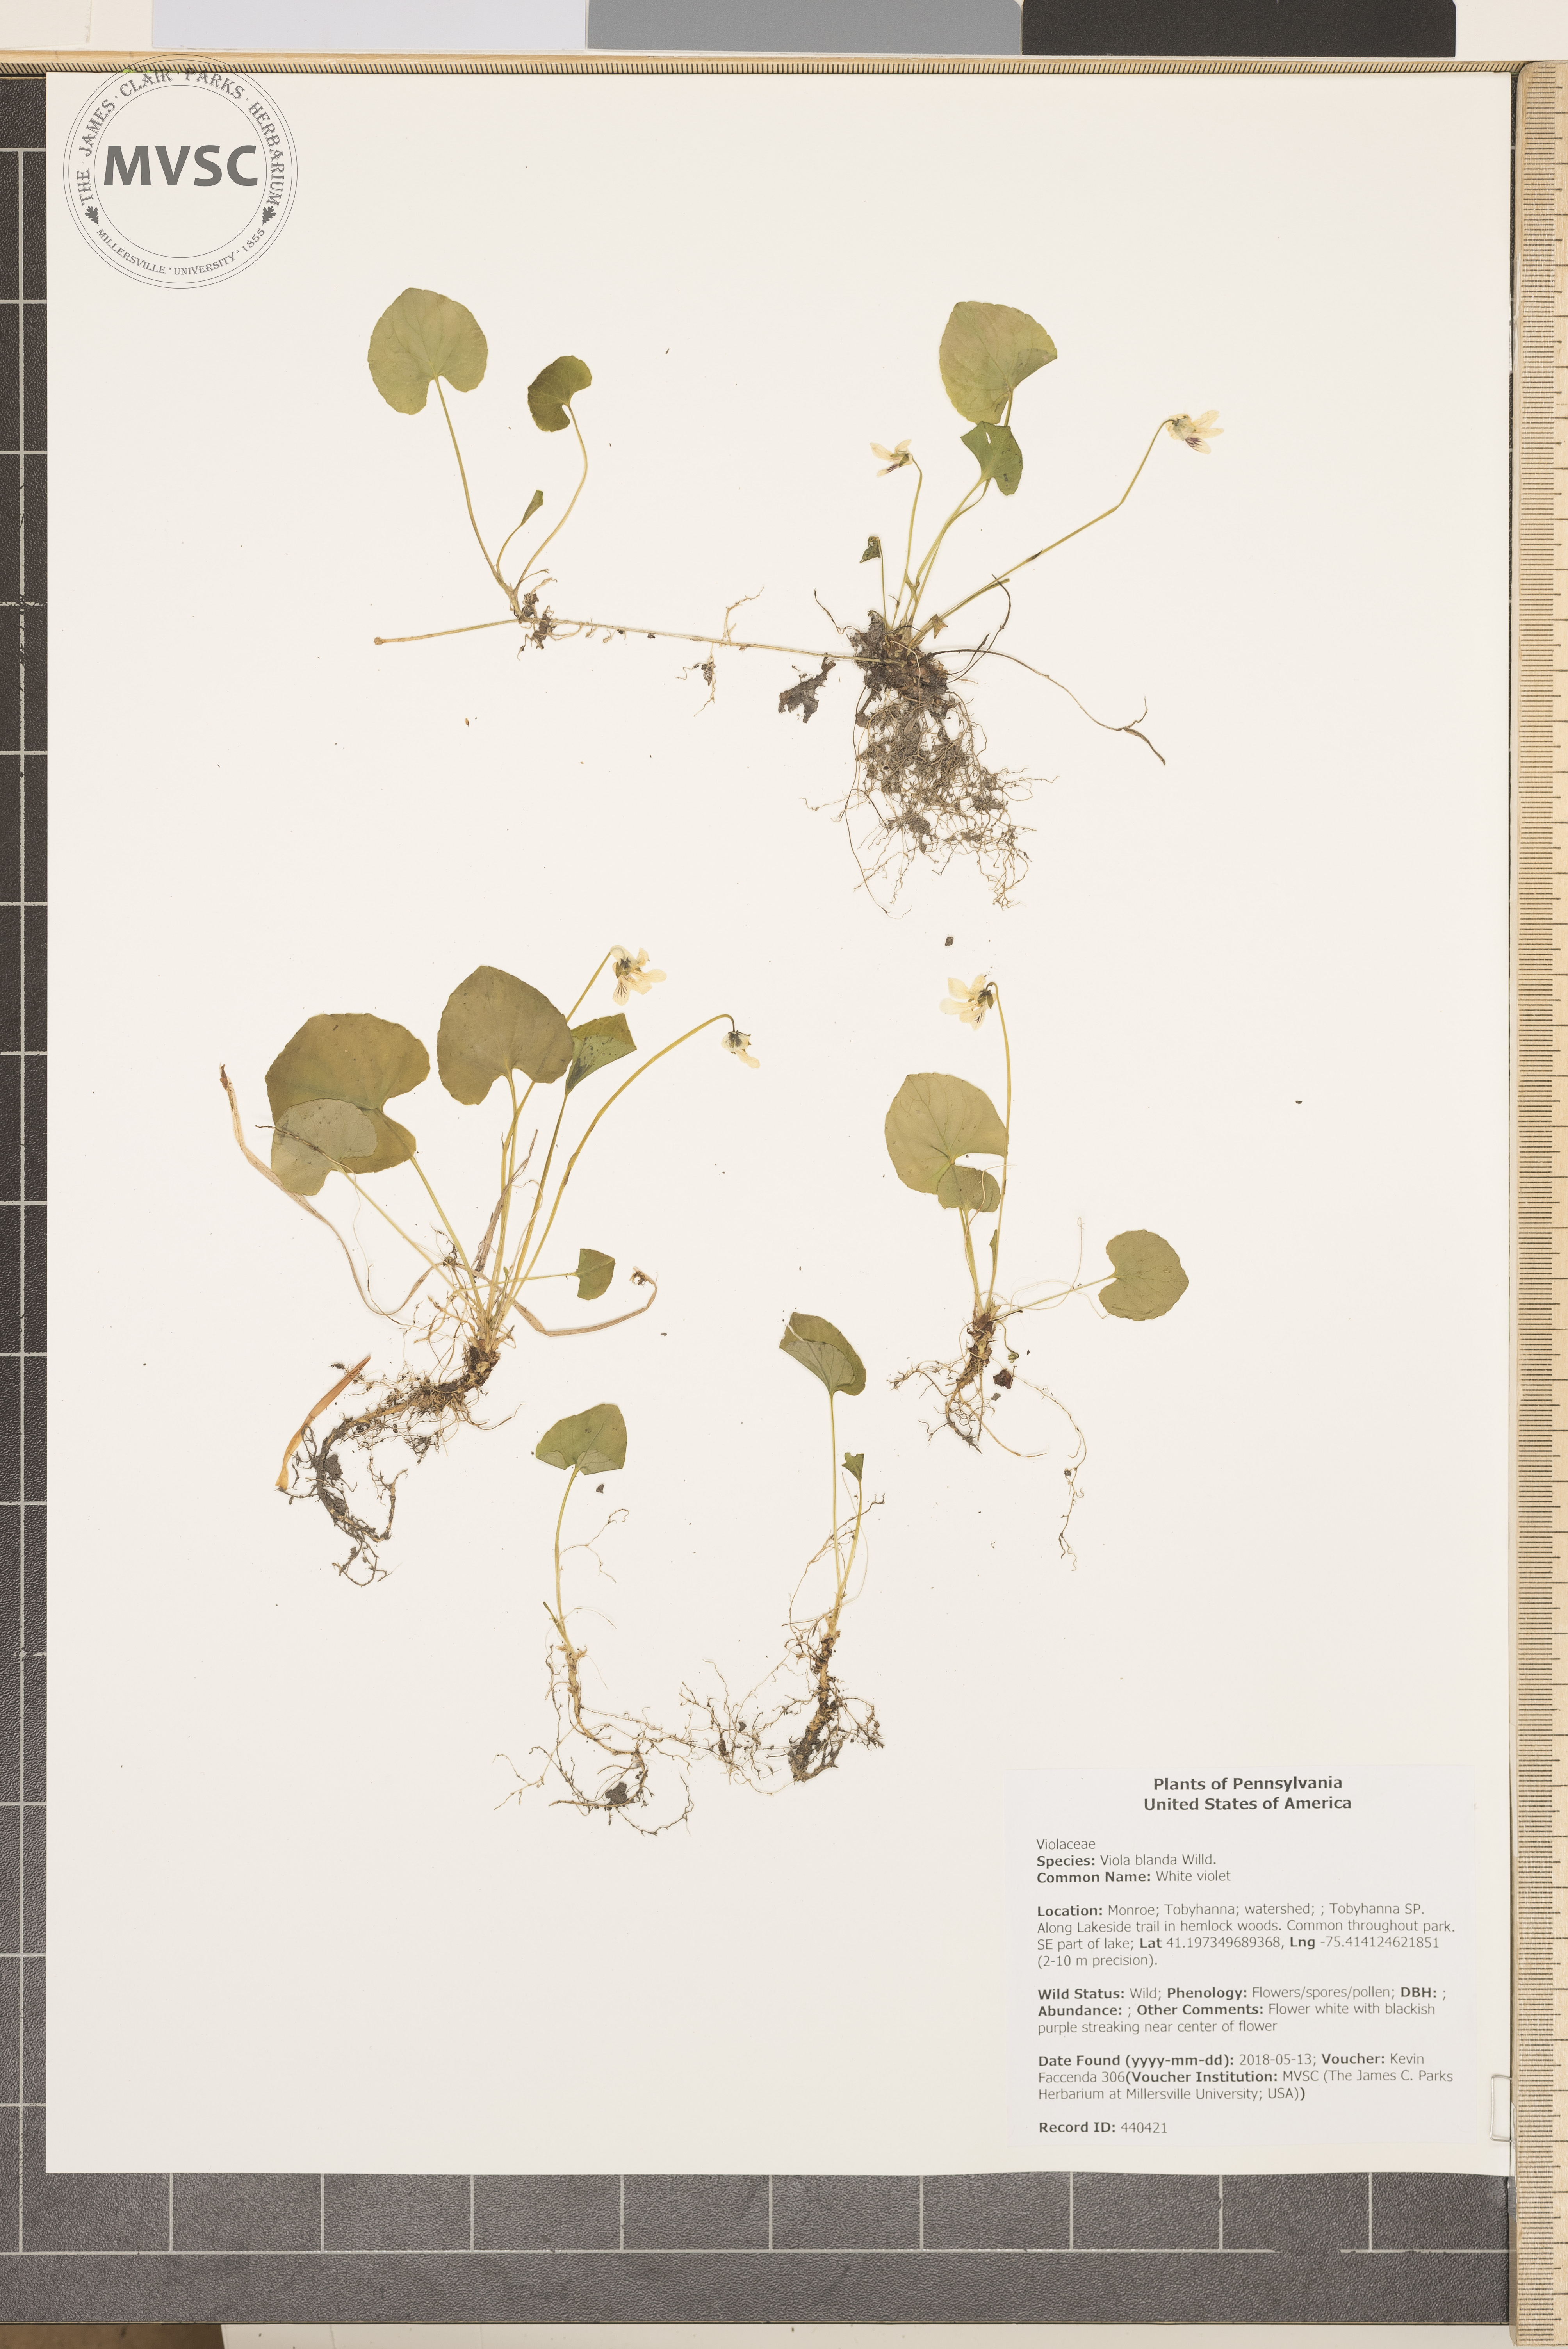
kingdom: Plantae
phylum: Tracheophyta
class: Magnoliopsida
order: Malpighiales
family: Violaceae
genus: Viola
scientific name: Viola blanda
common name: White violet
